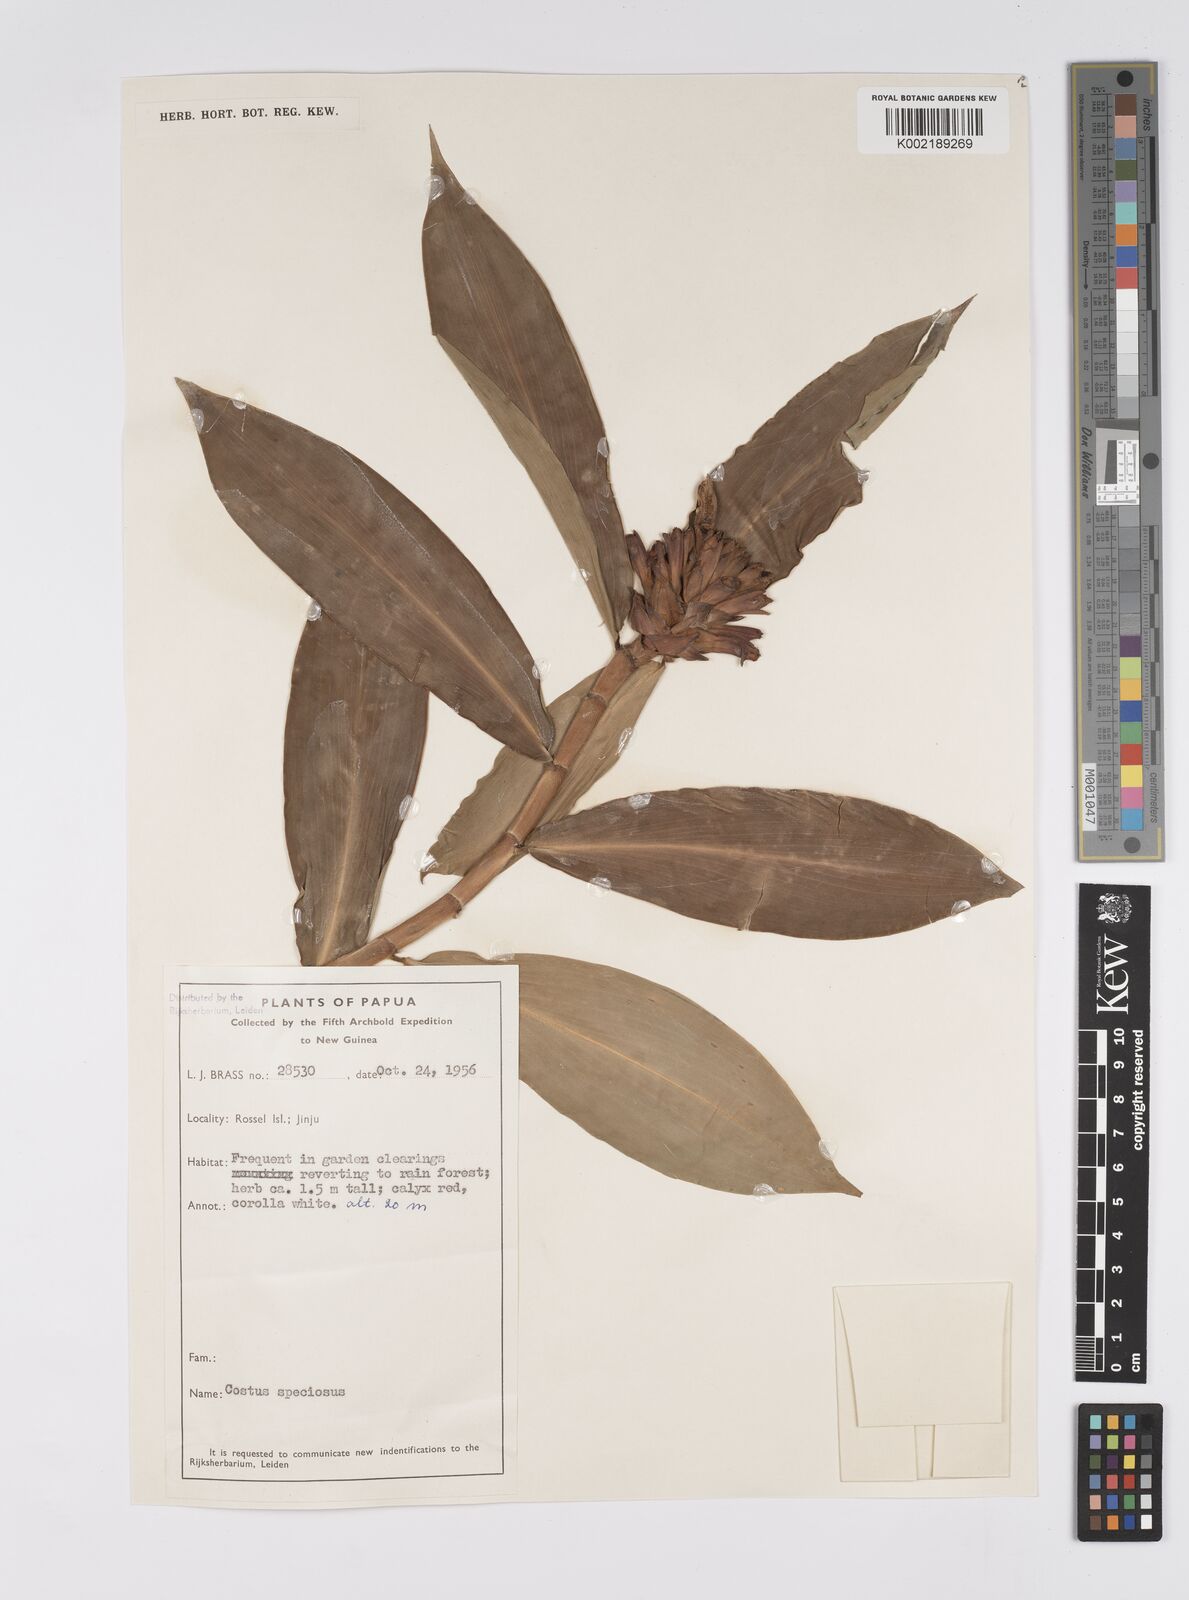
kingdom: Plantae
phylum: Tracheophyta
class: Liliopsida
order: Zingiberales
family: Costaceae
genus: Hellenia
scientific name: Hellenia speciosa
